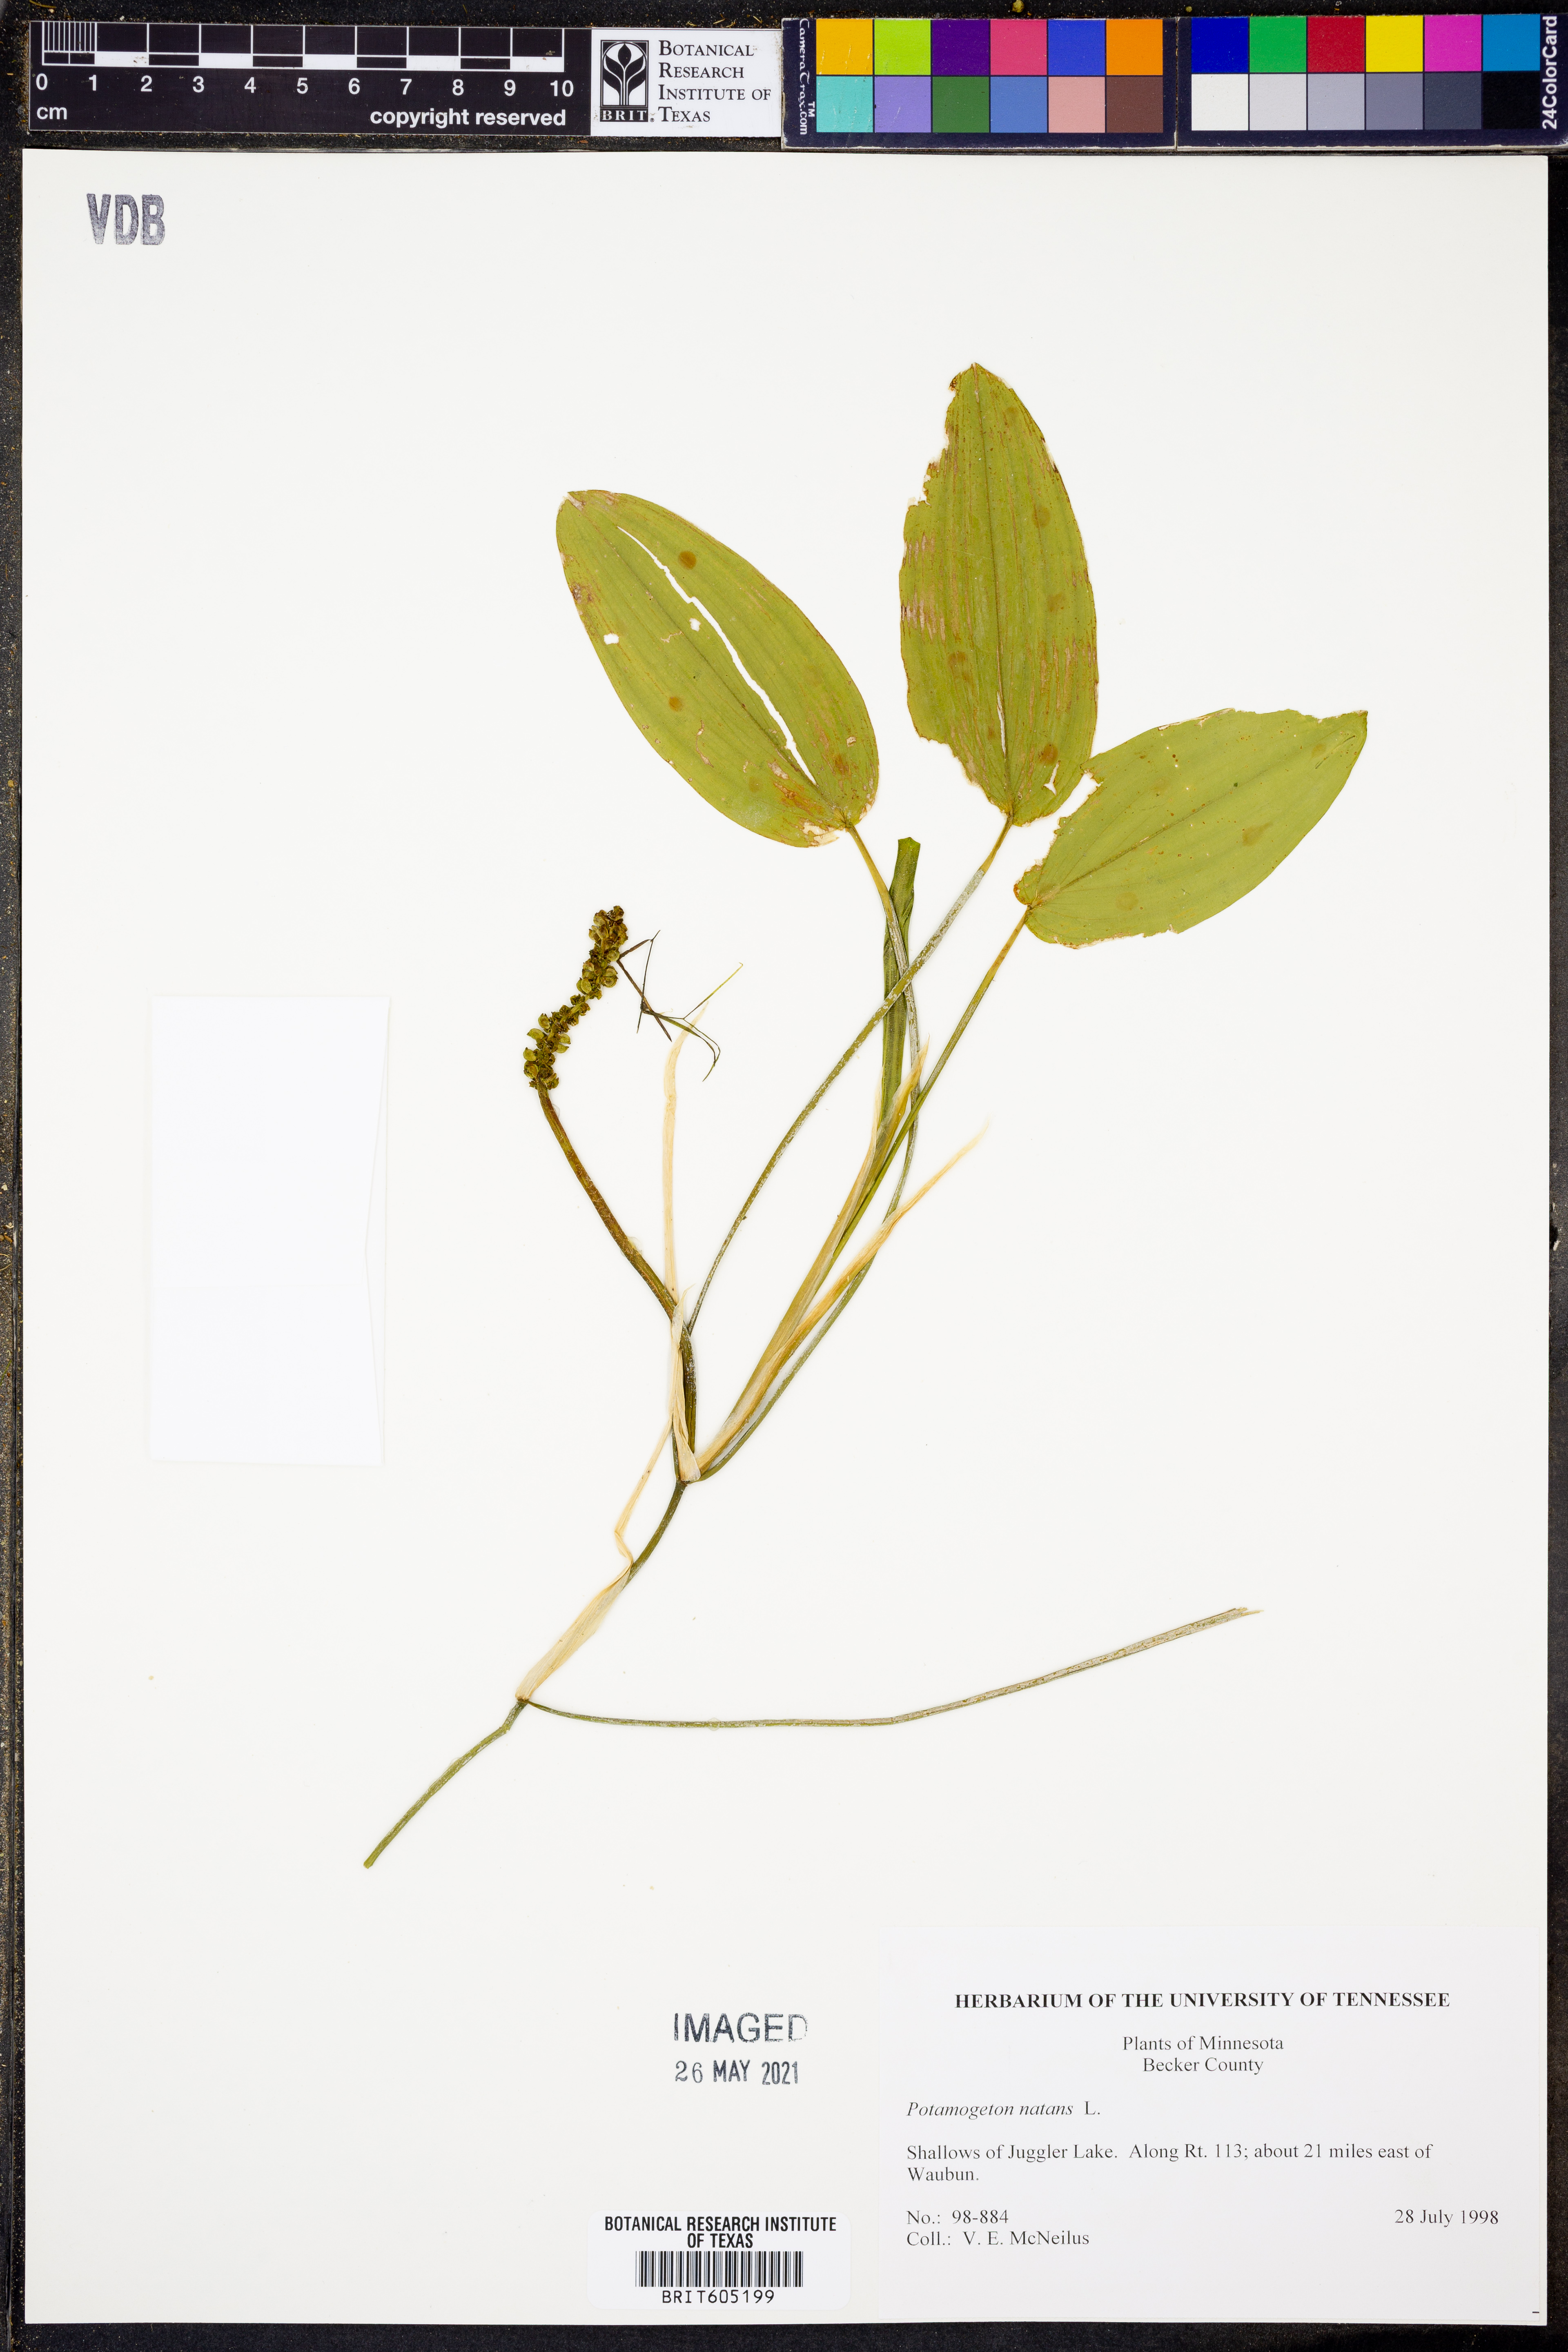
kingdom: Plantae
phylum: Tracheophyta
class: Liliopsida
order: Alismatales
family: Potamogetonaceae
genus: Potamogeton
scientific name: Potamogeton natans
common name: Broad-leaved pondweed
